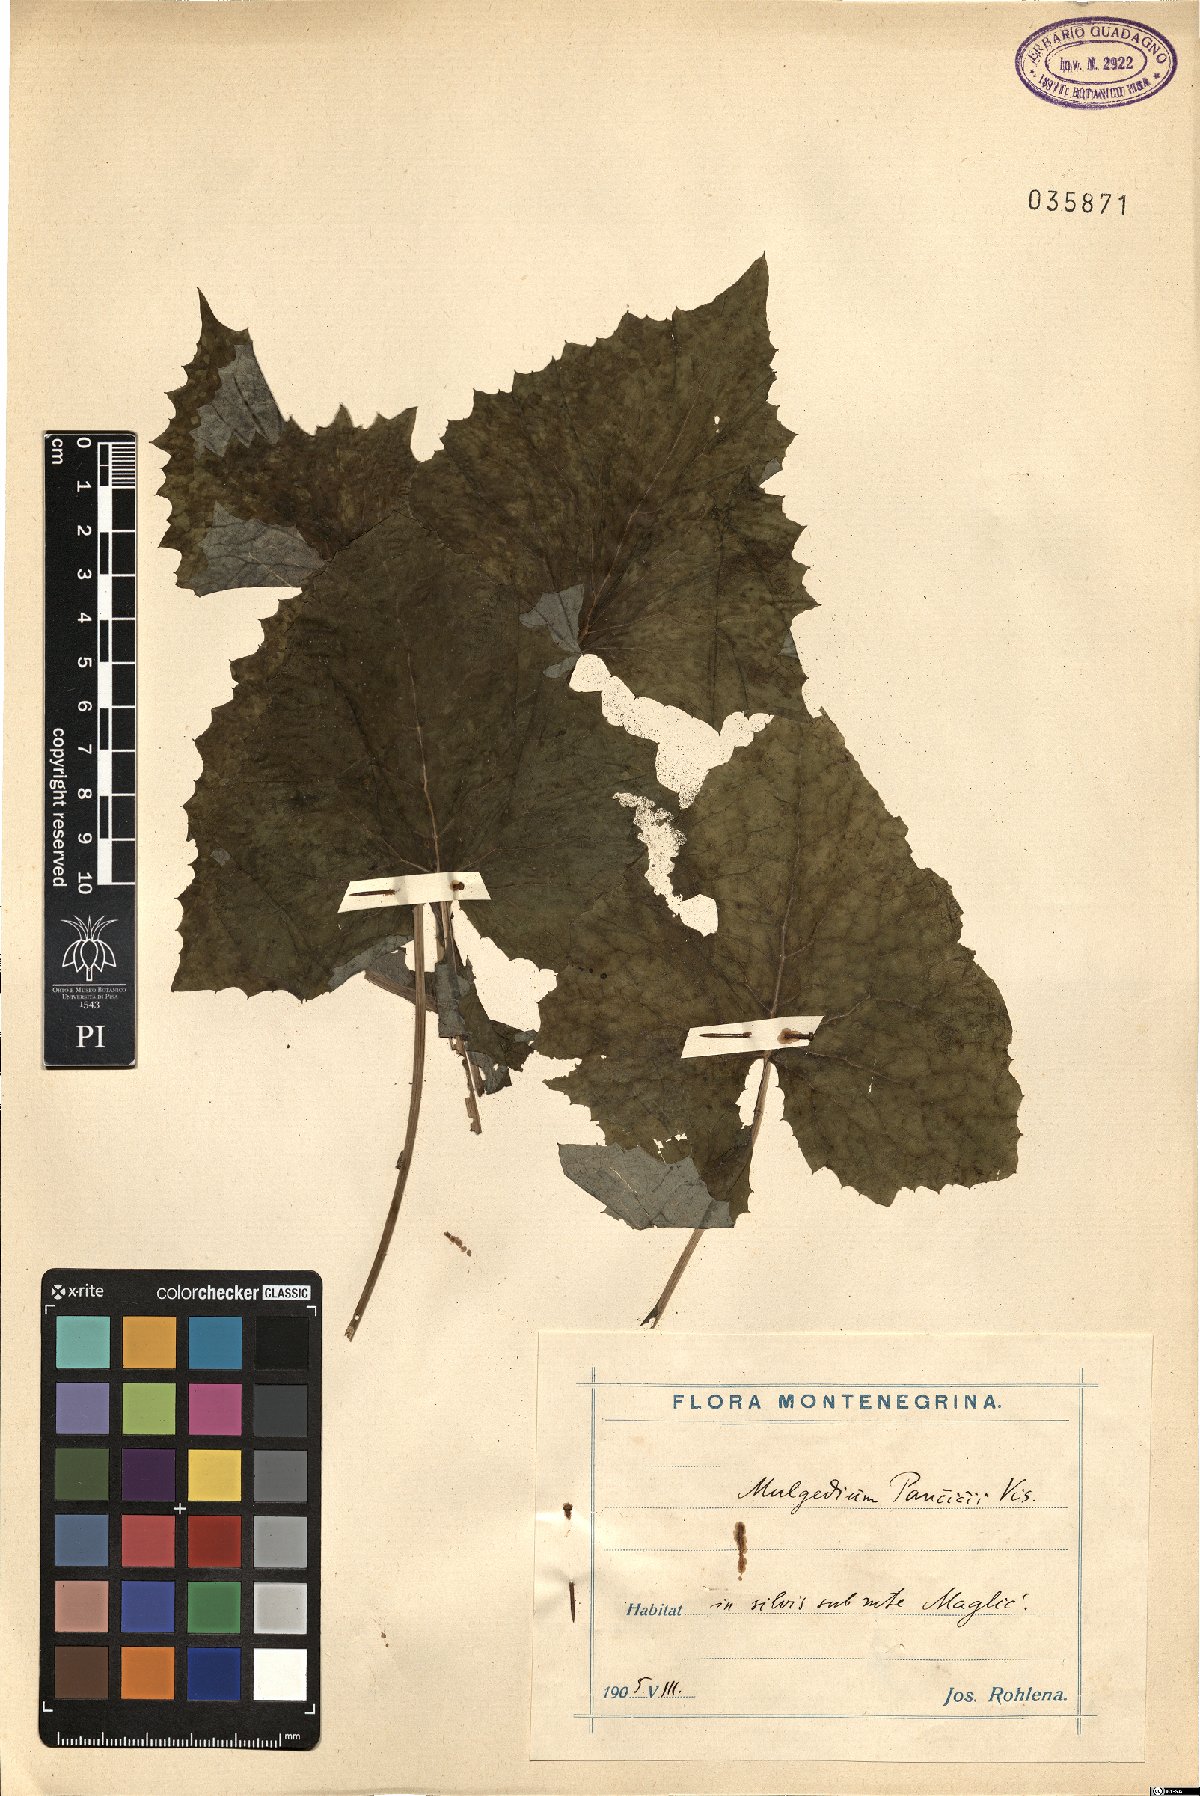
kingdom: Plantae
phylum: Tracheophyta
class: Magnoliopsida
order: Asterales
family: Asteraceae
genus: Cicerbita
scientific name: Cicerbita pancicii
